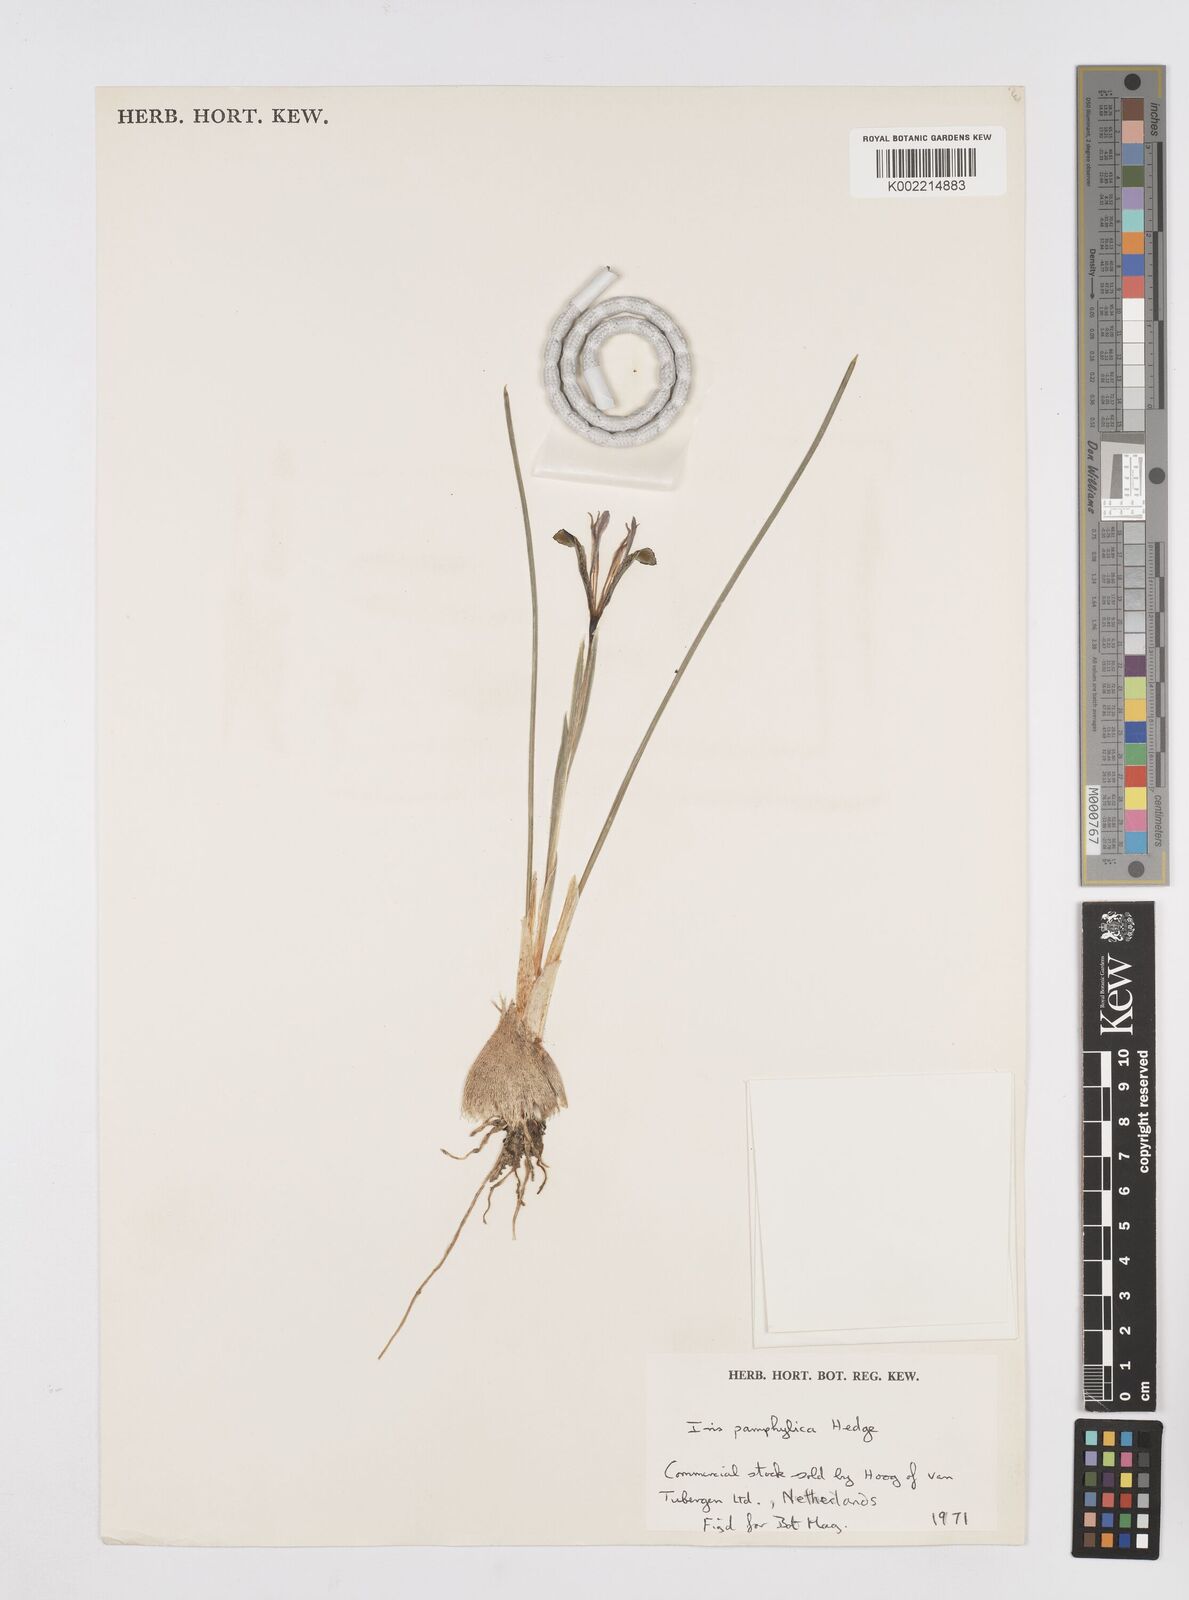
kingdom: Plantae
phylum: Tracheophyta
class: Liliopsida
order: Asparagales
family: Iridaceae
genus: Iris
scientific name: Iris pamphylica
